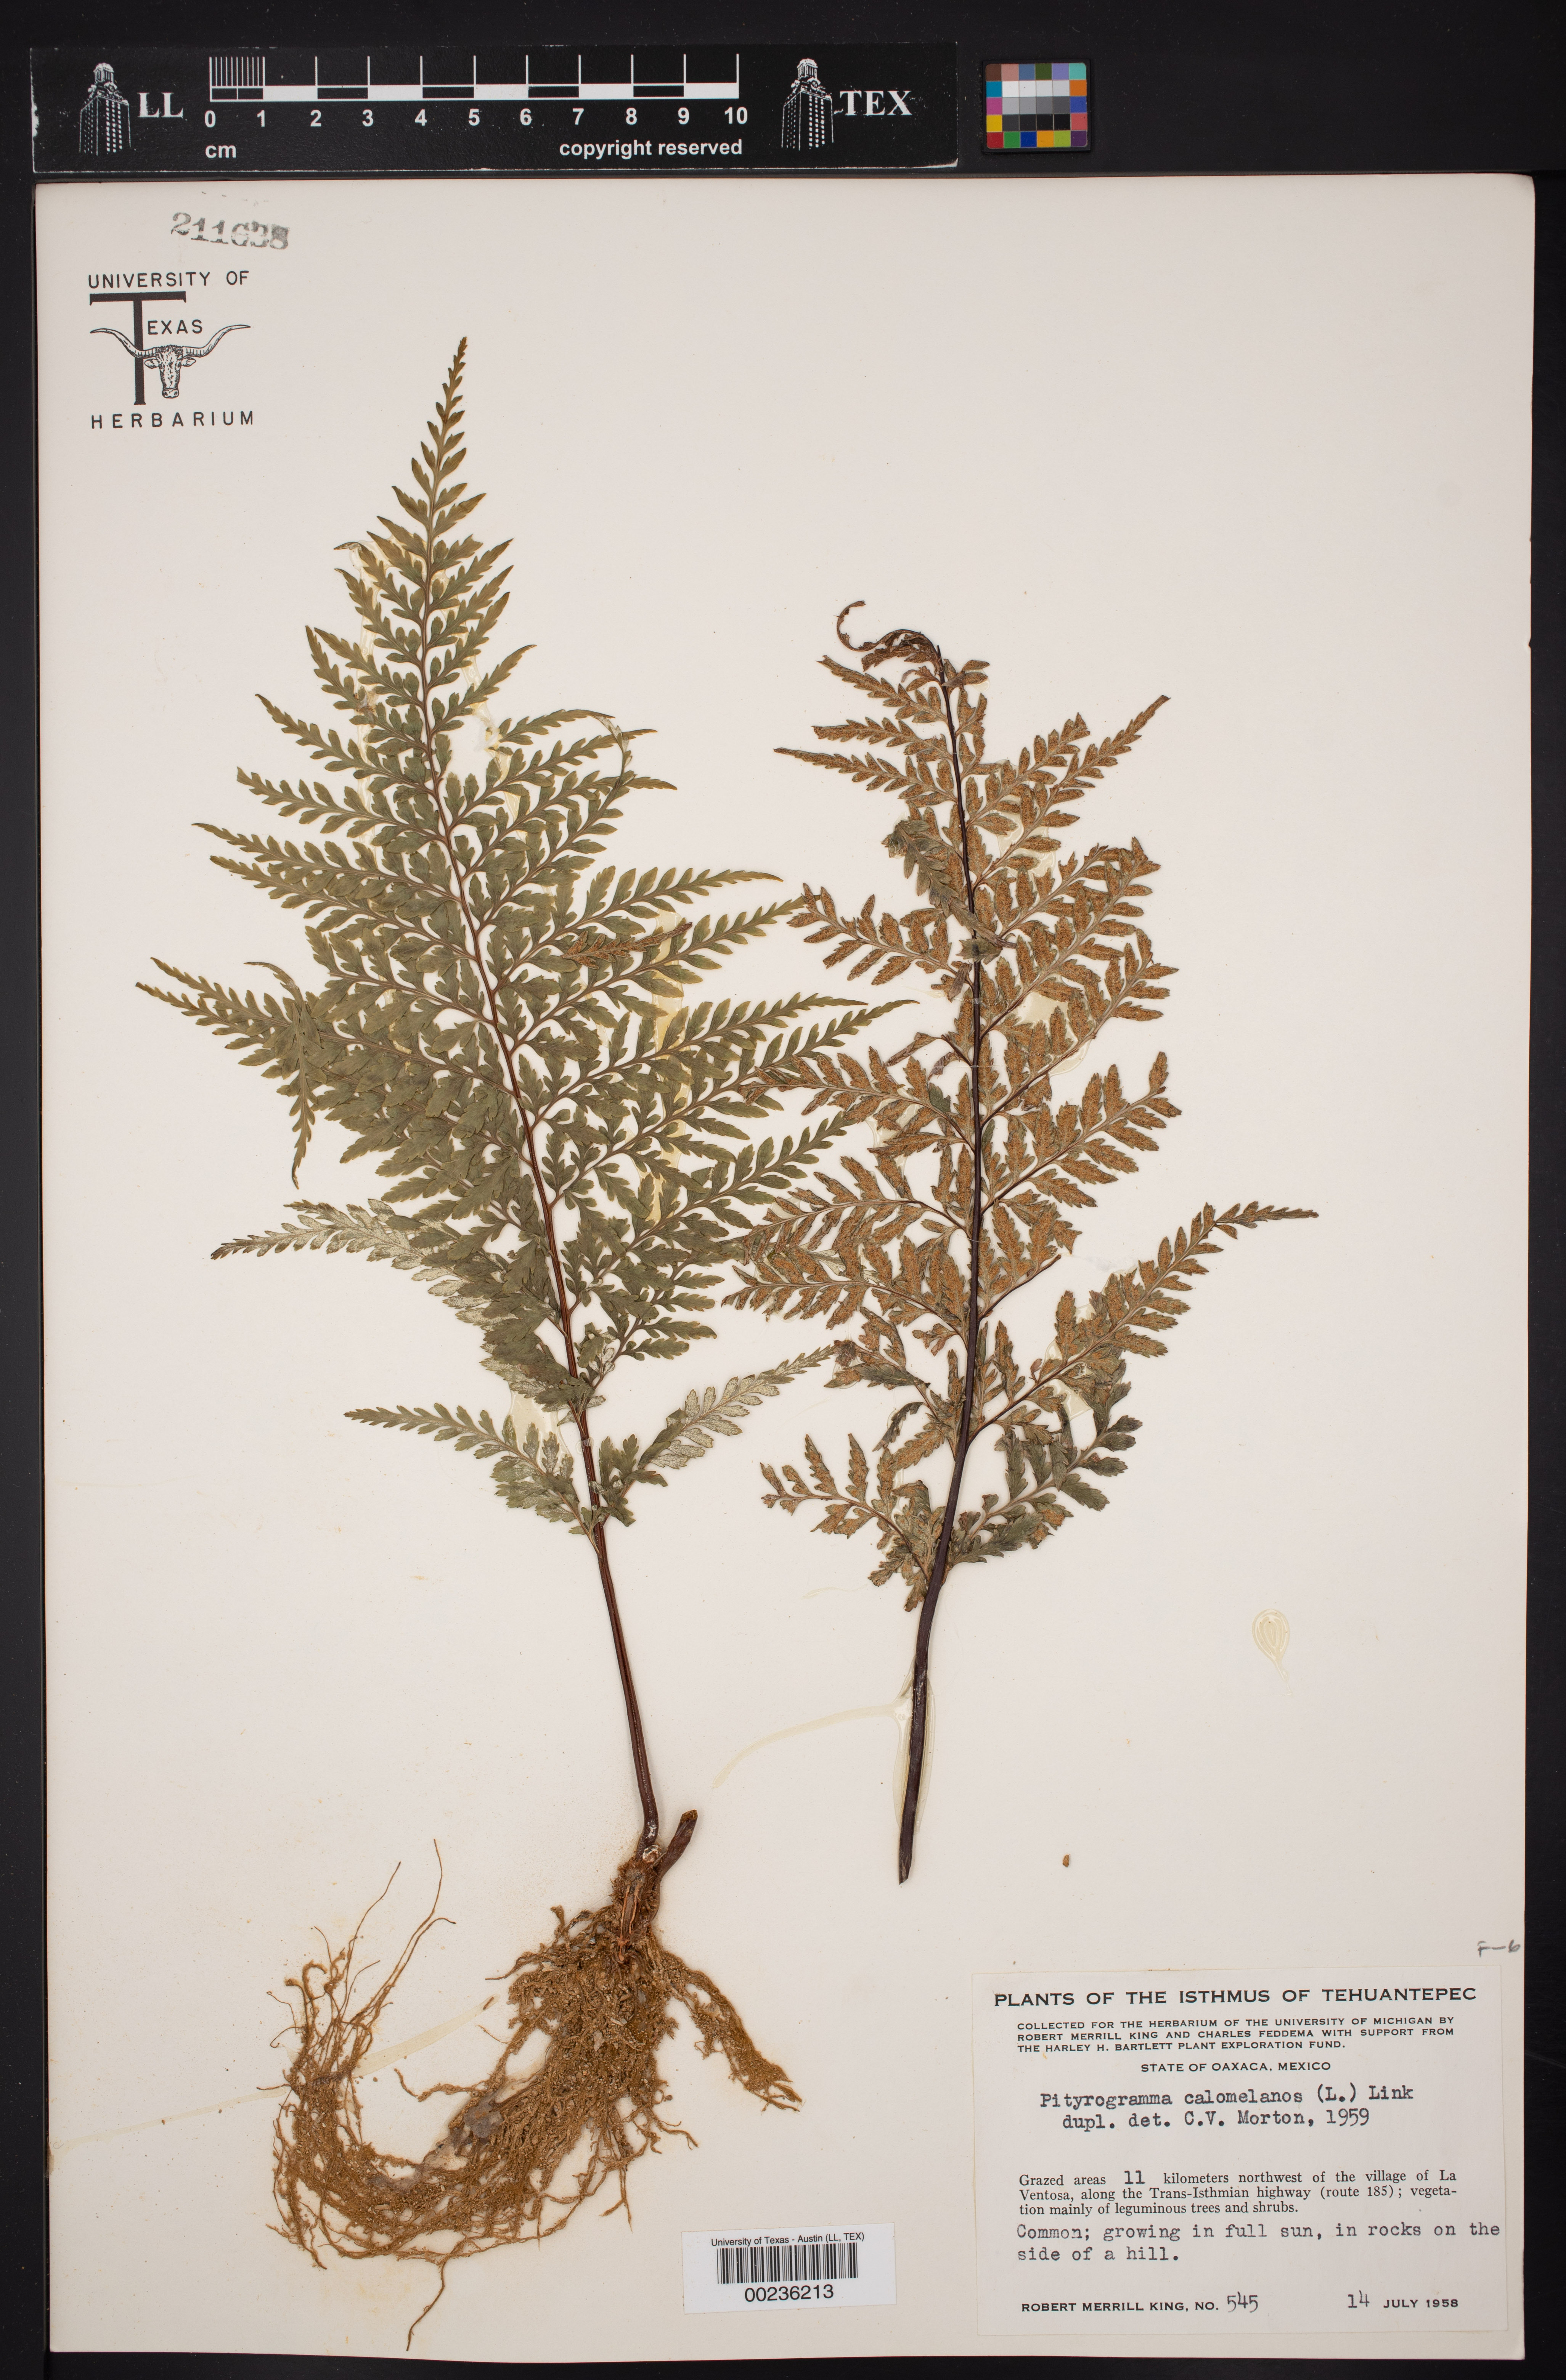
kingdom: Plantae
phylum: Tracheophyta
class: Polypodiopsida
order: Polypodiales
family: Pteridaceae
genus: Pityrogramma
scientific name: Pityrogramma calomelanos
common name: Dixie silverback fern
